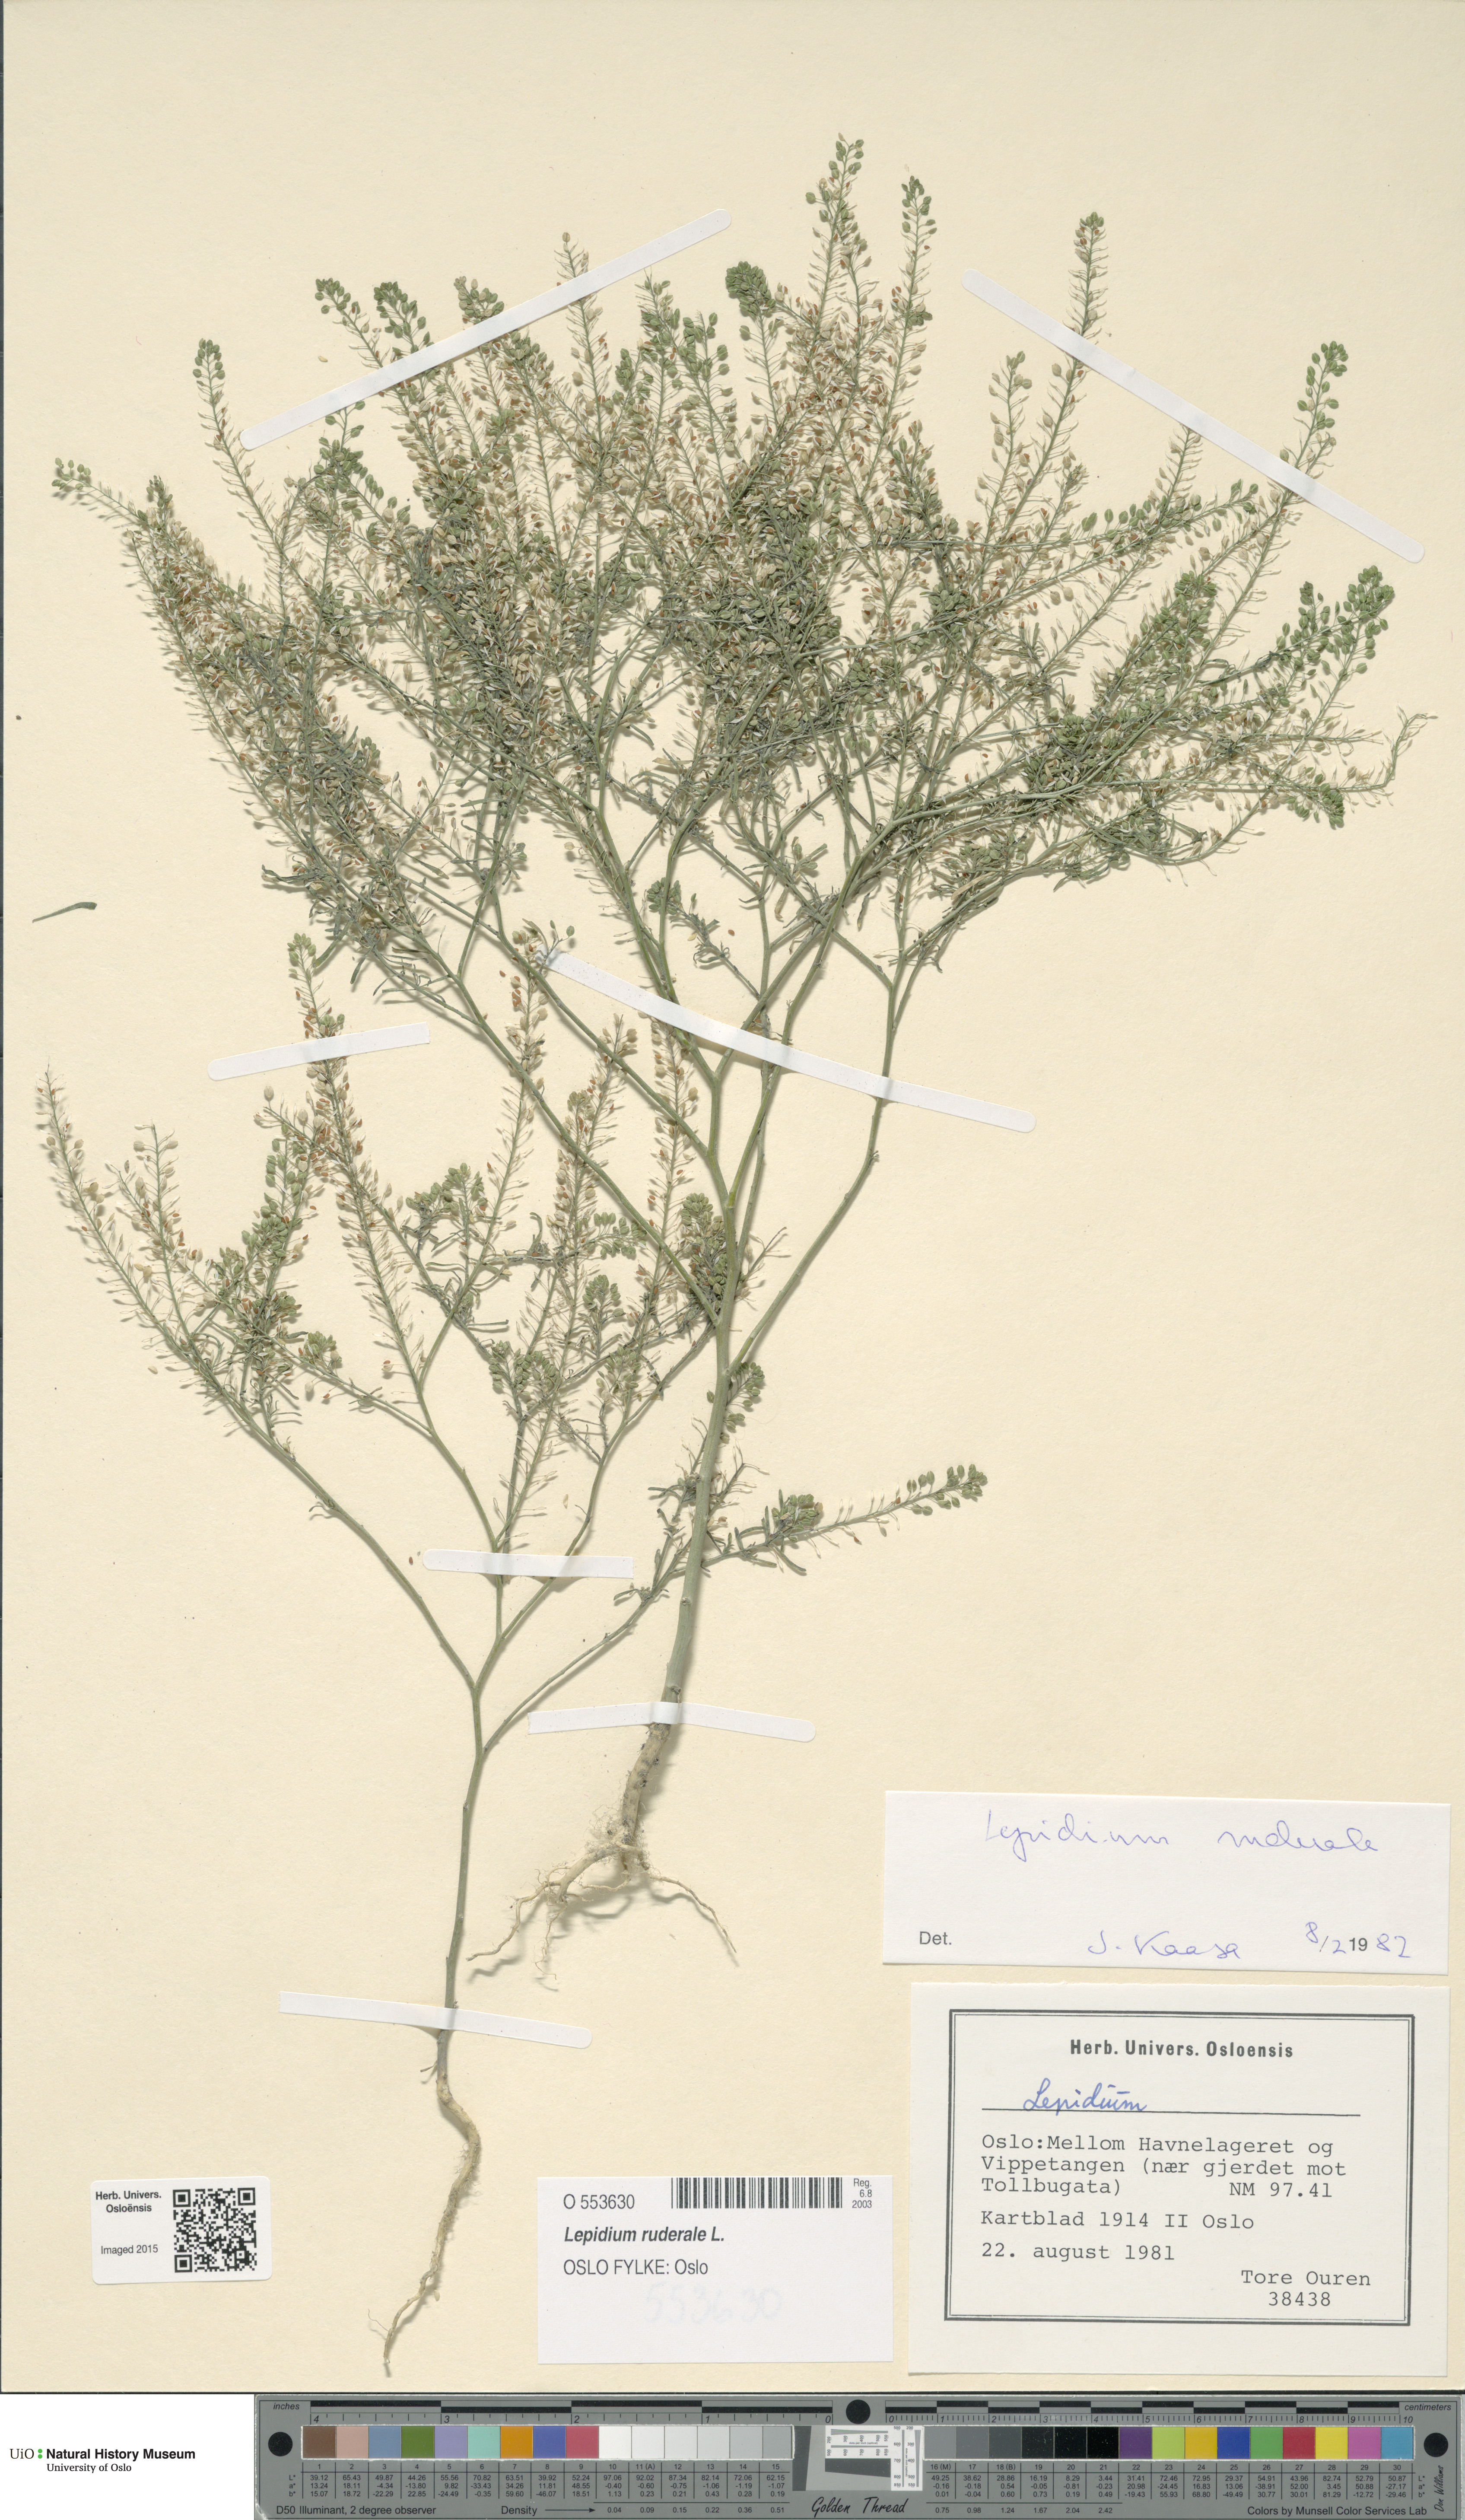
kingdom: Plantae
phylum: Tracheophyta
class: Magnoliopsida
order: Brassicales
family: Brassicaceae
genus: Lepidium
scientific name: Lepidium ruderale
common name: Narrow-leaved pepperwort
